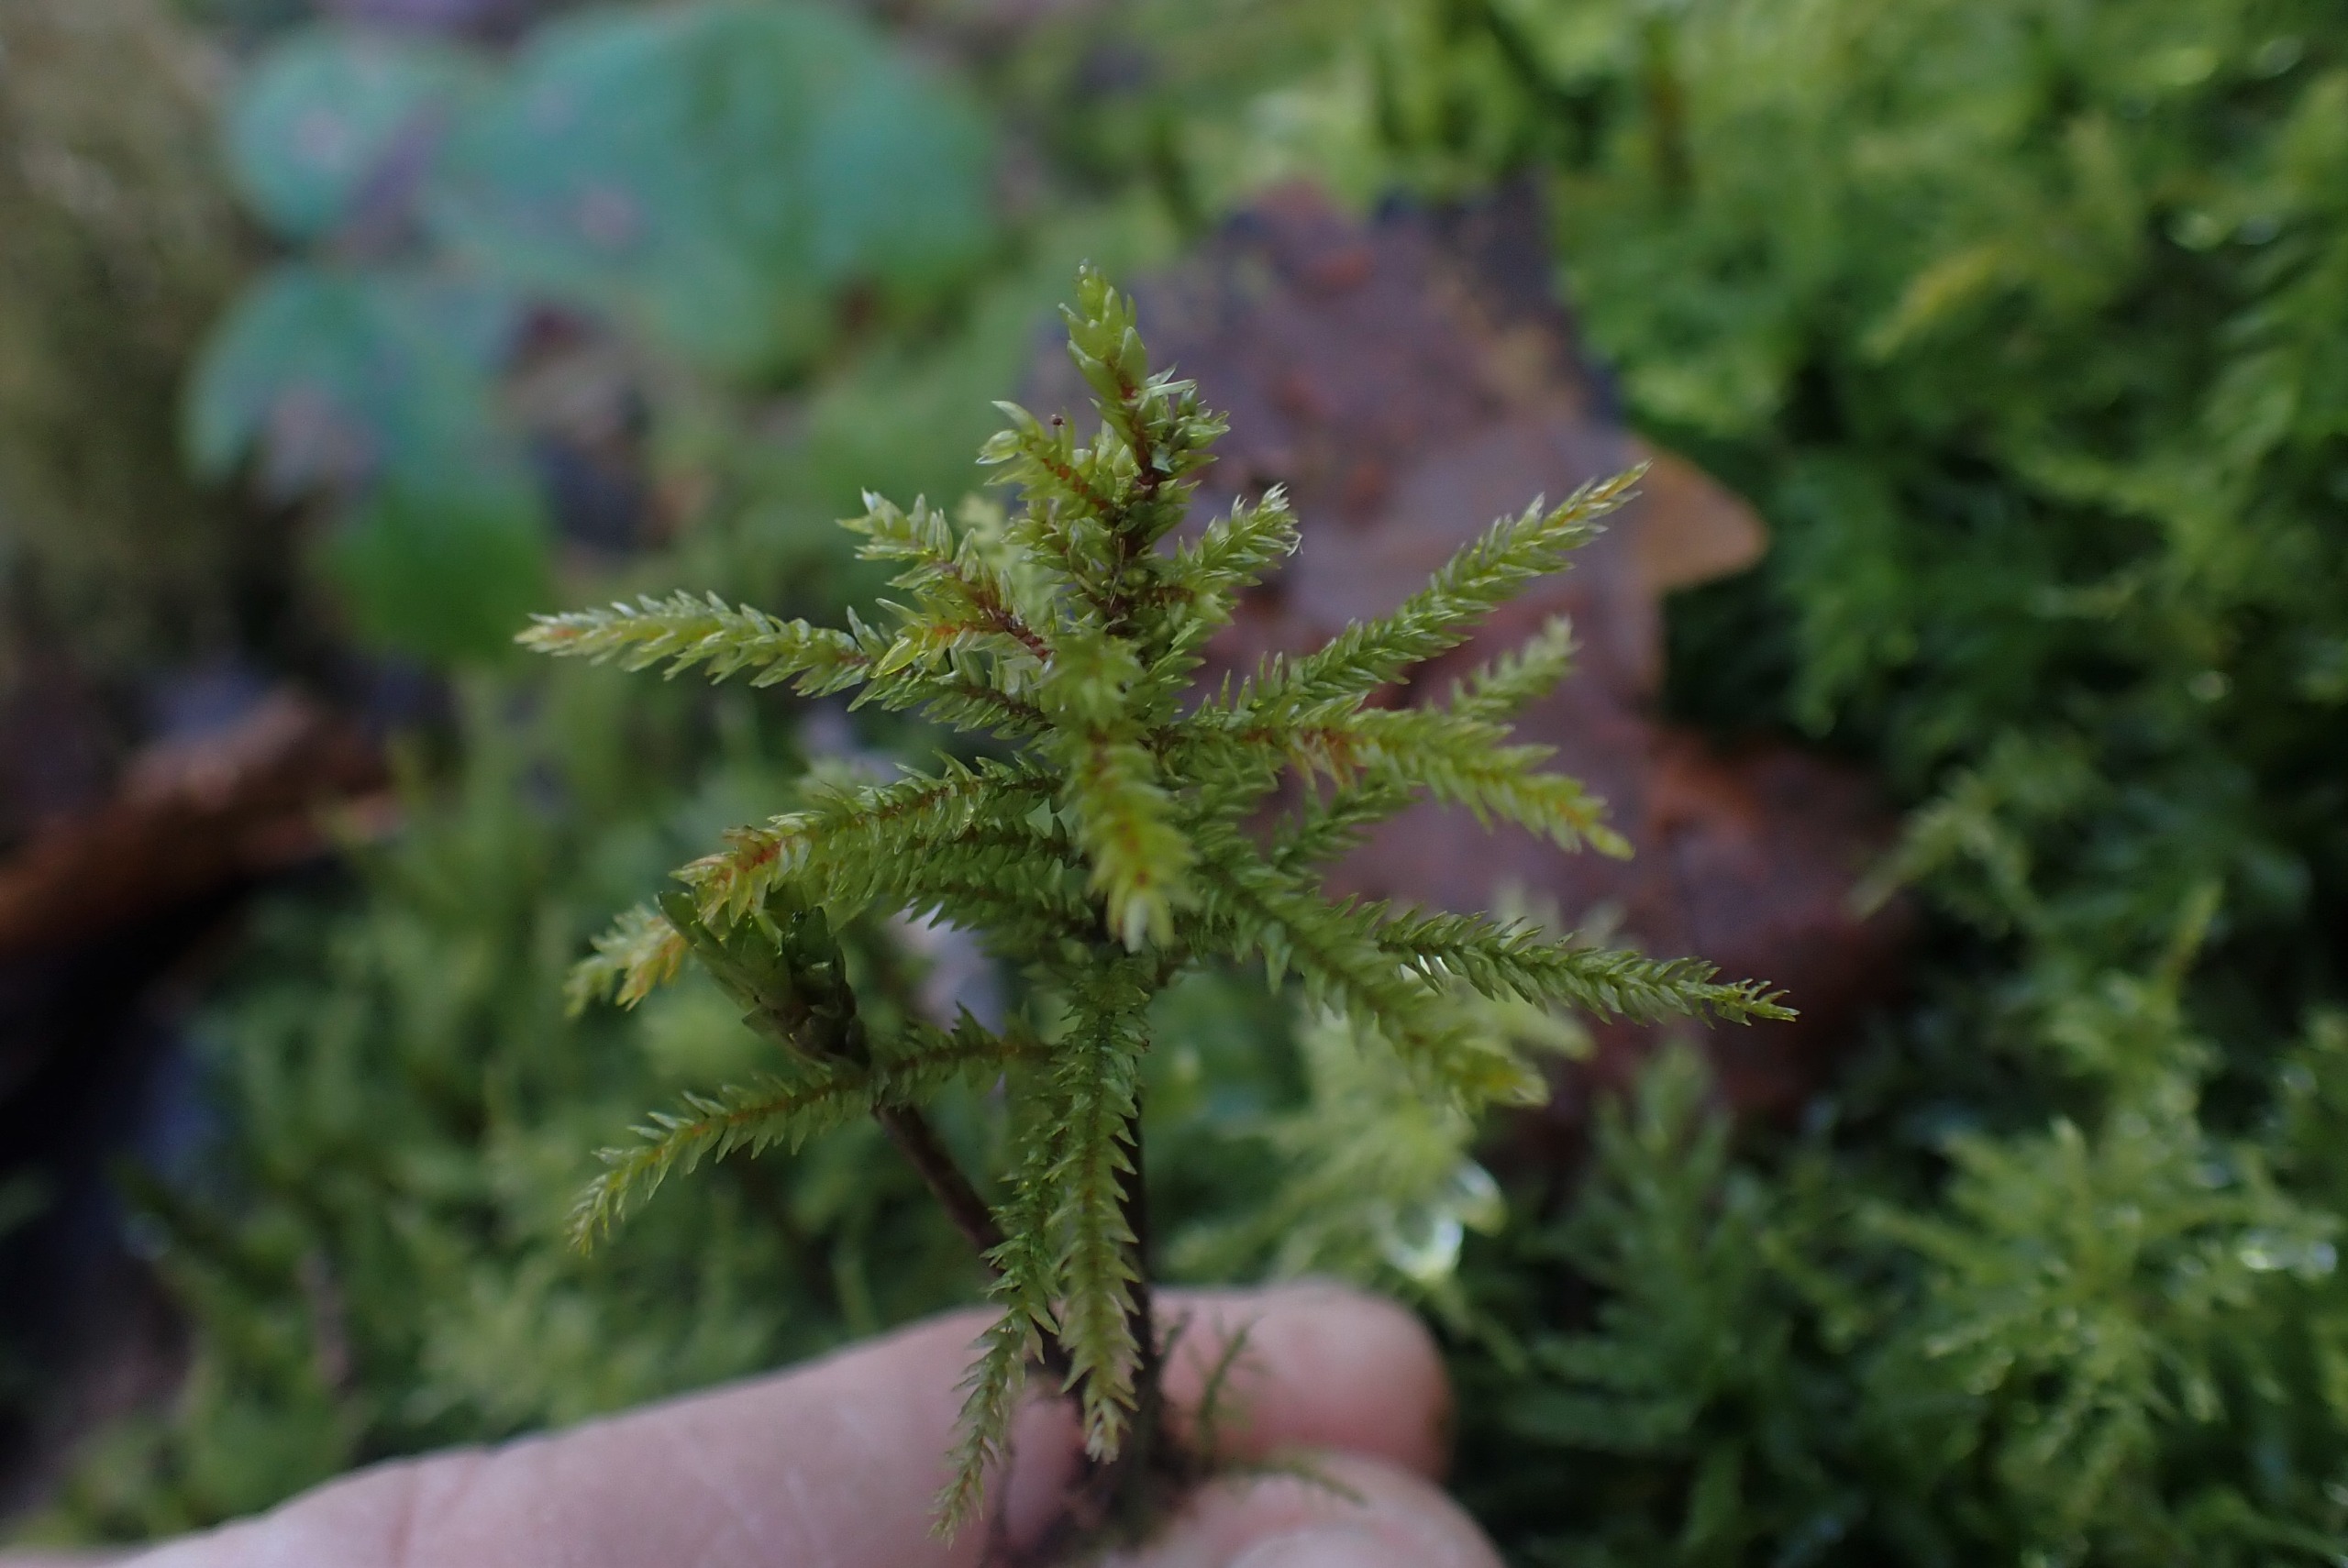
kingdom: Plantae
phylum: Bryophyta
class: Bryopsida
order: Hypnales
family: Climaciaceae
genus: Climacium
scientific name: Climacium dendroides
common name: Stor engkost
